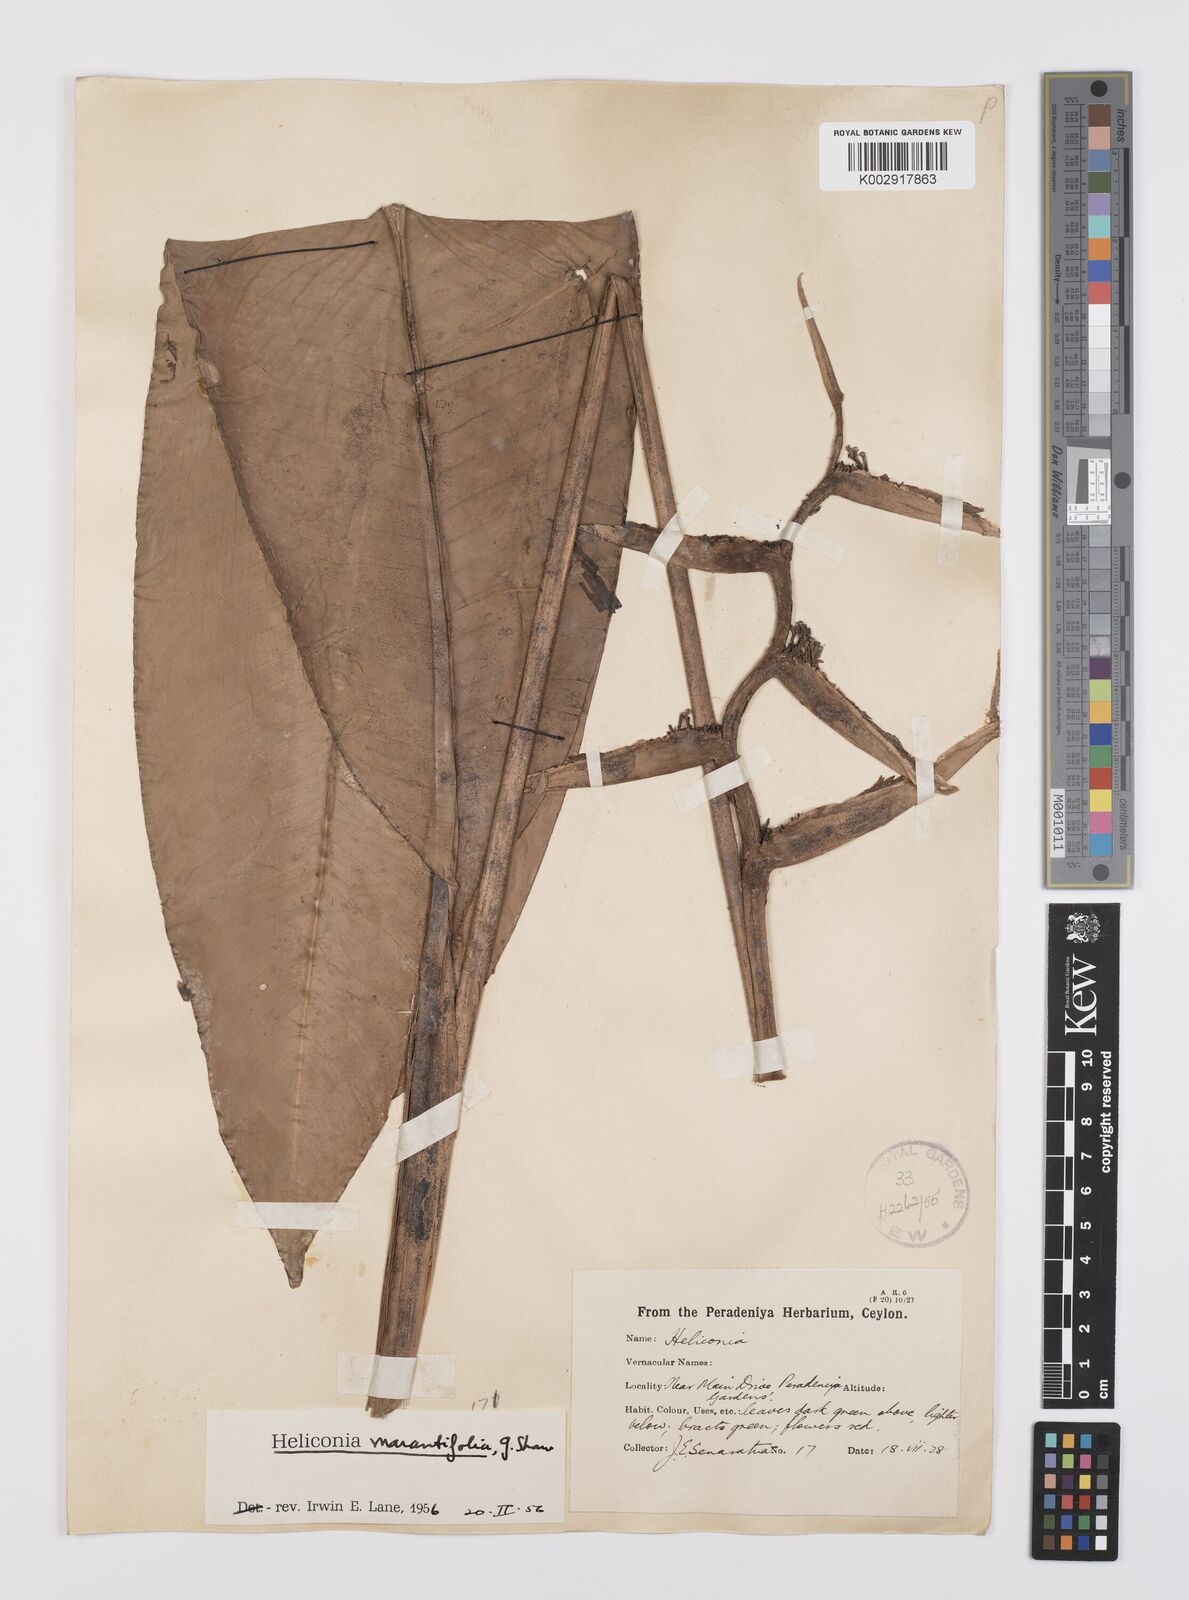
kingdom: Plantae
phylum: Tracheophyta
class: Liliopsida
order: Zingiberales
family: Heliconiaceae
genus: Heliconia
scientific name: Heliconia psittacorum
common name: Parrot's-flower
